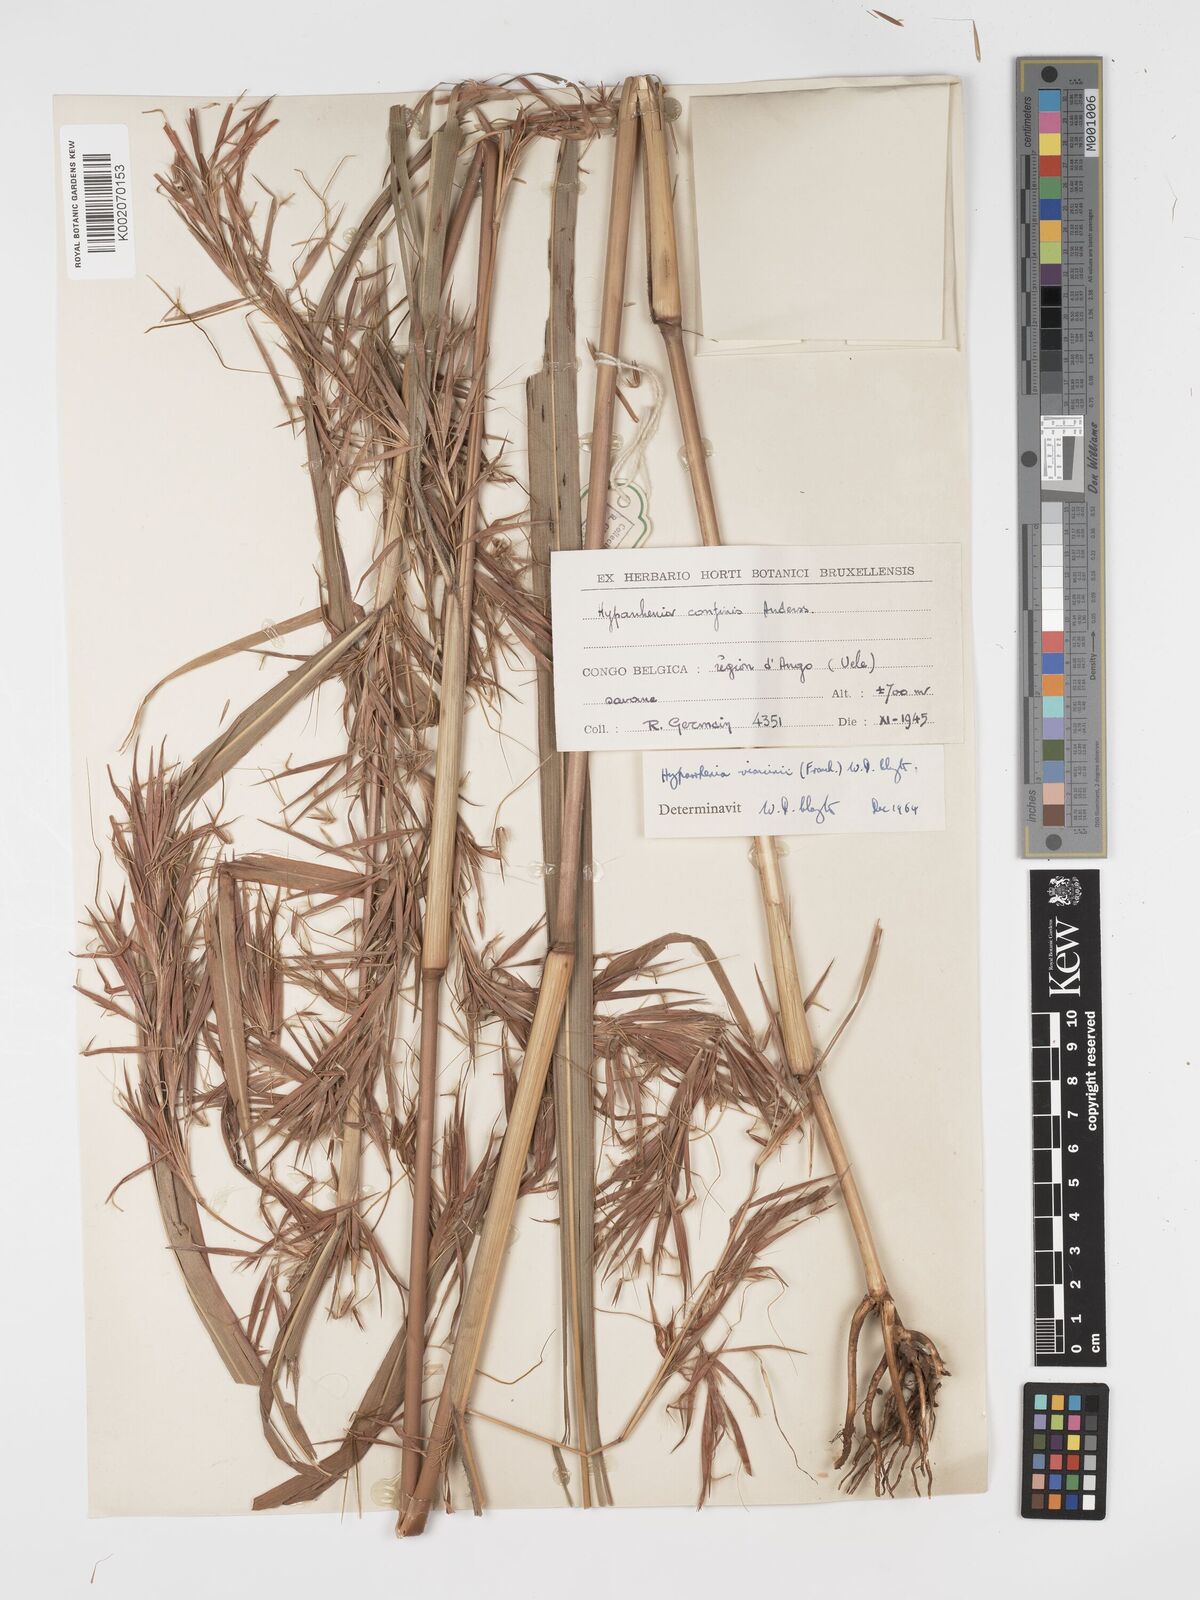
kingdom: Plantae
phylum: Tracheophyta
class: Liliopsida
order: Poales
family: Poaceae
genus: Hyparrhenia
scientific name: Hyparrhenia niariensis
